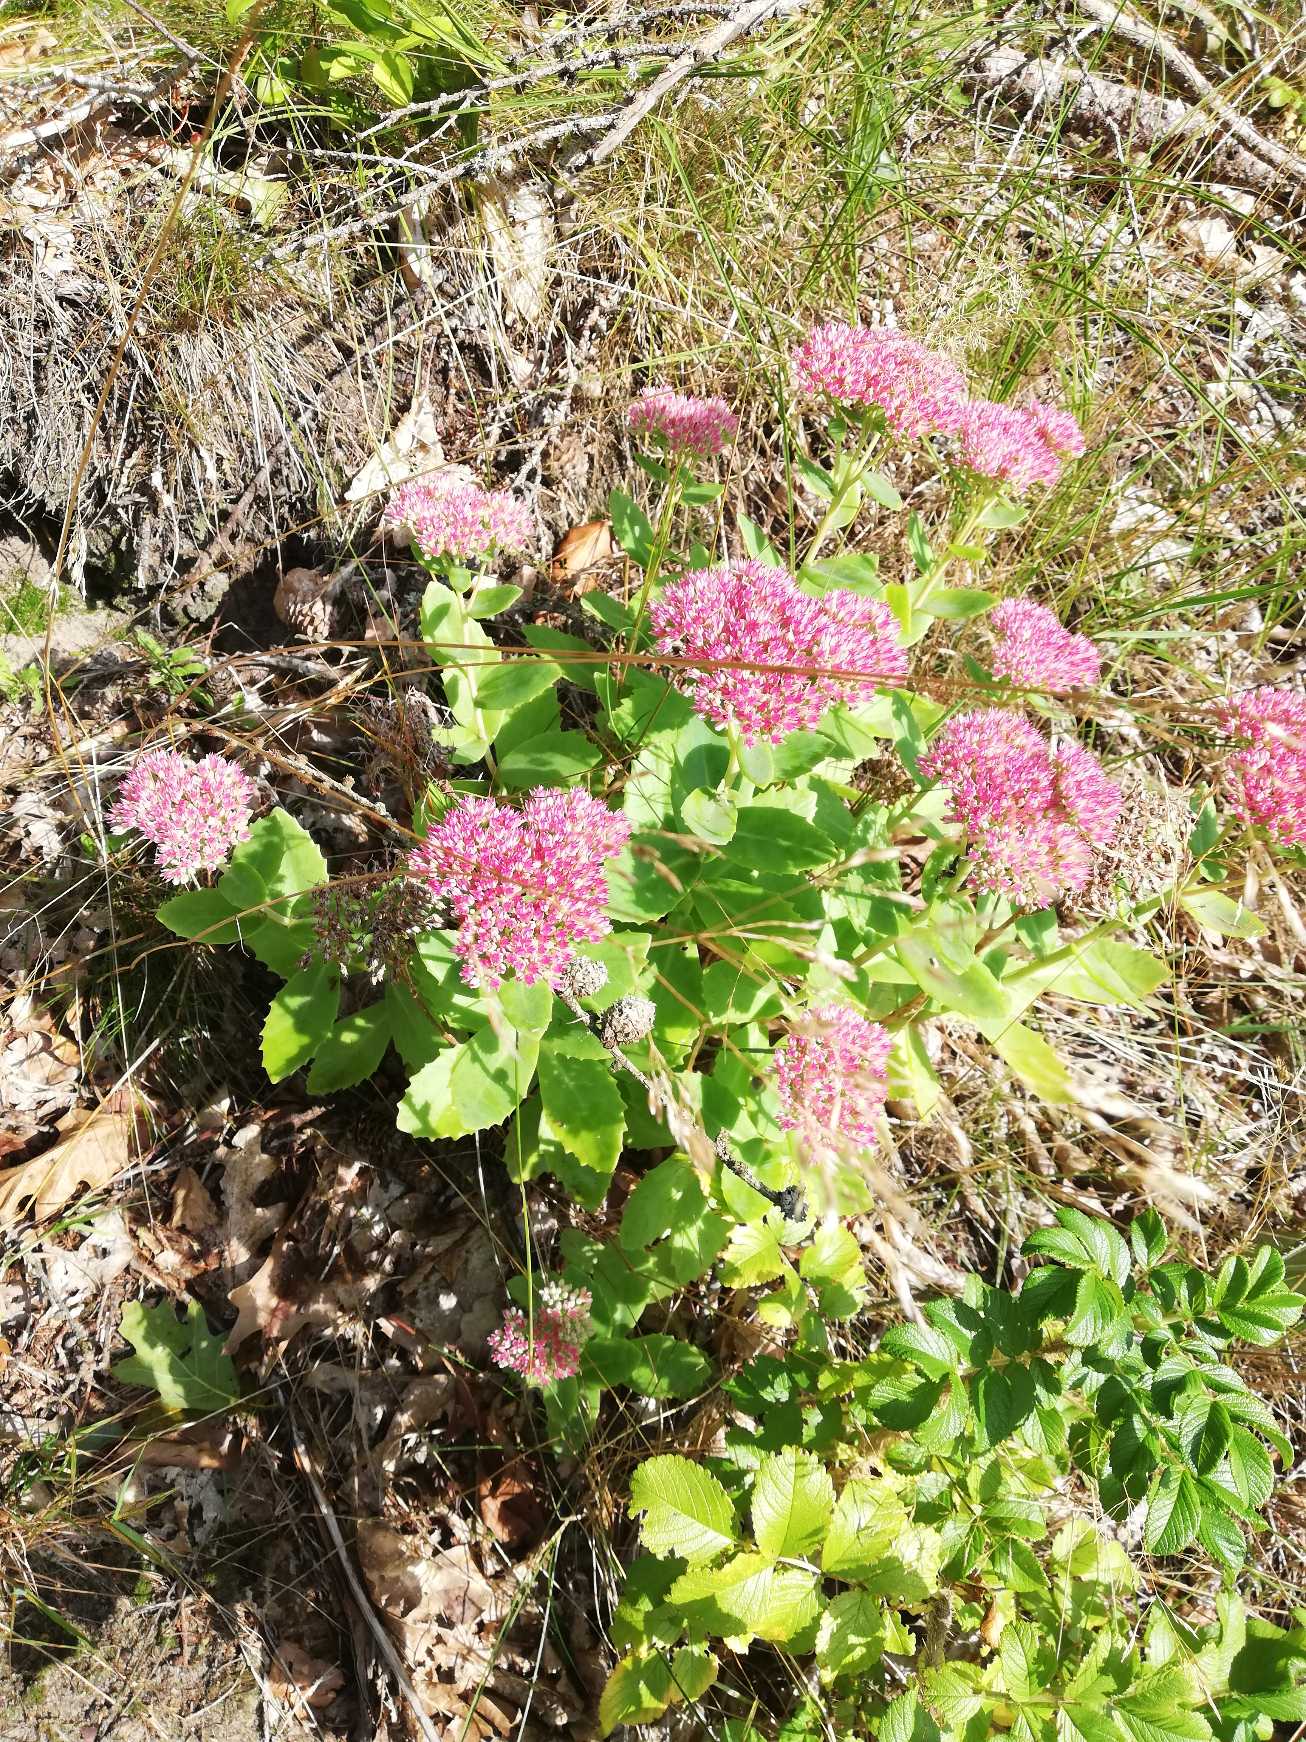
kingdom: Plantae
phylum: Tracheophyta
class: Magnoliopsida
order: Saxifragales
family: Crassulaceae
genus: Hylotelephium
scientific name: Hylotelephium
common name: Kinesisk sankthansurt × sankthansurt
